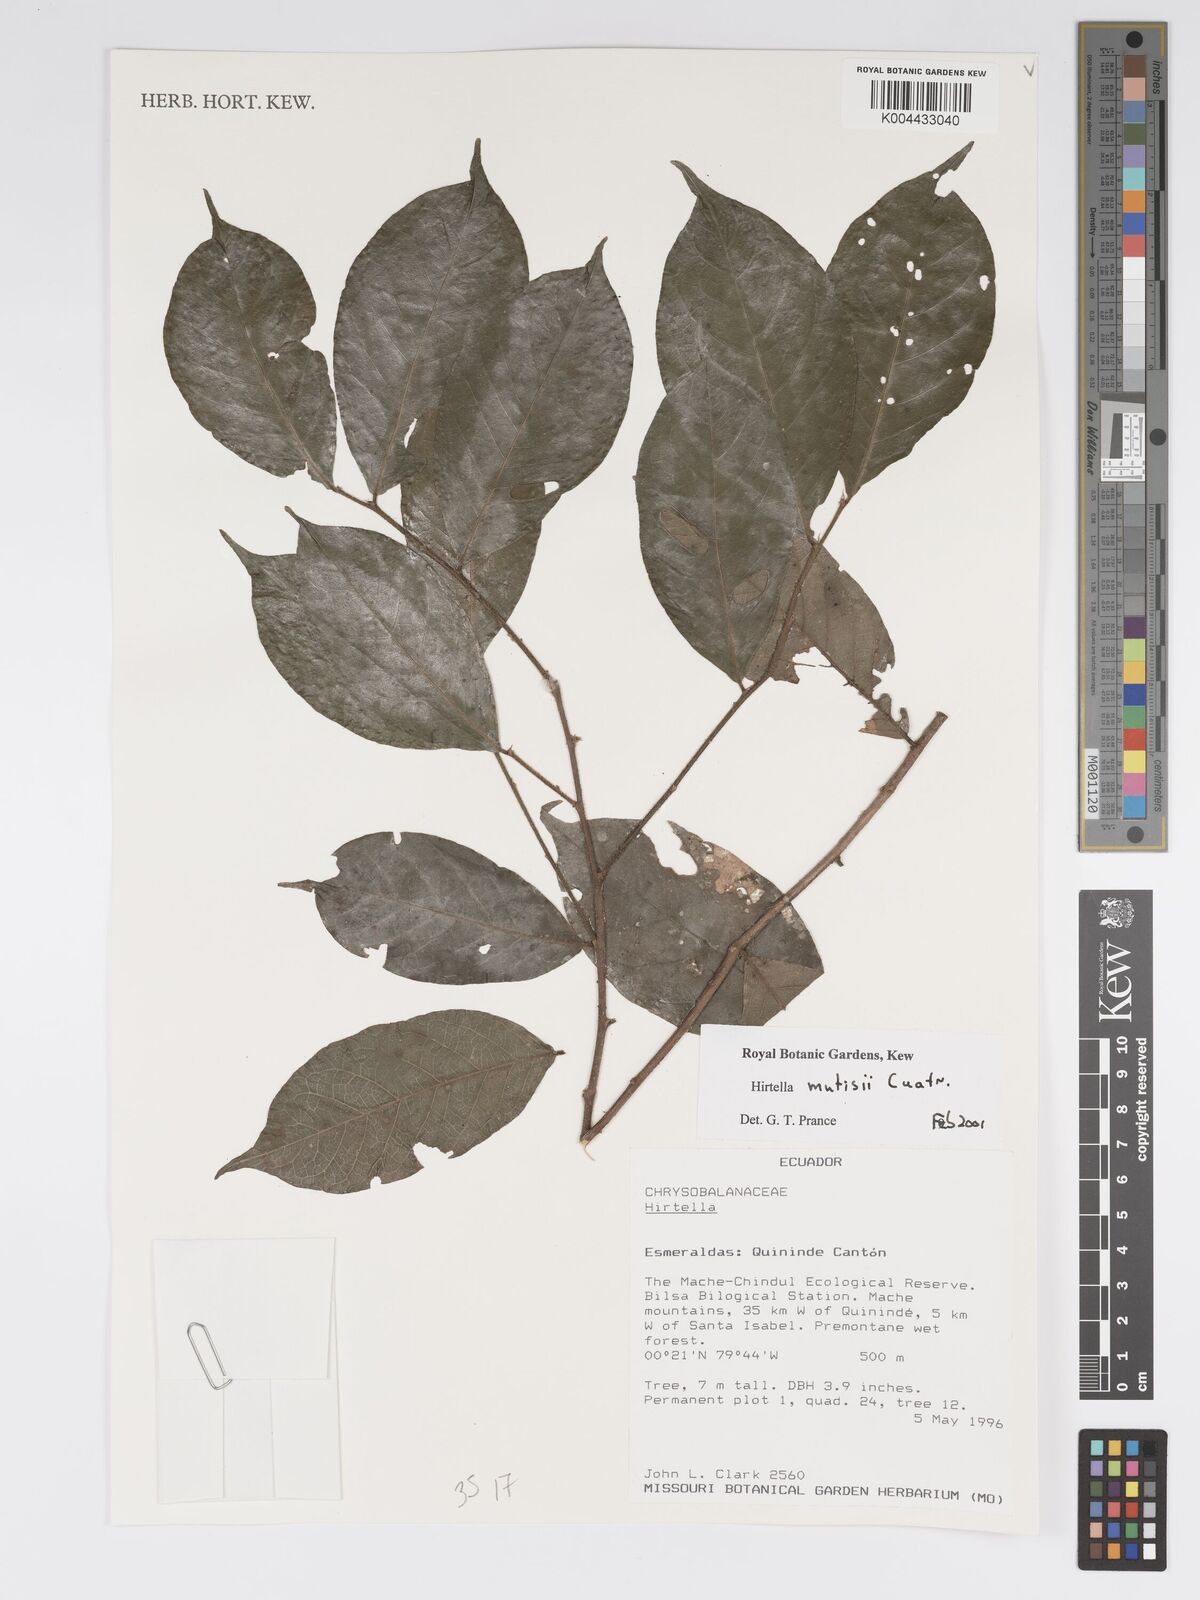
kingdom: Plantae
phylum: Tracheophyta
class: Magnoliopsida
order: Malpighiales
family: Chrysobalanaceae
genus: Hirtella
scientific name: Hirtella mutisii
